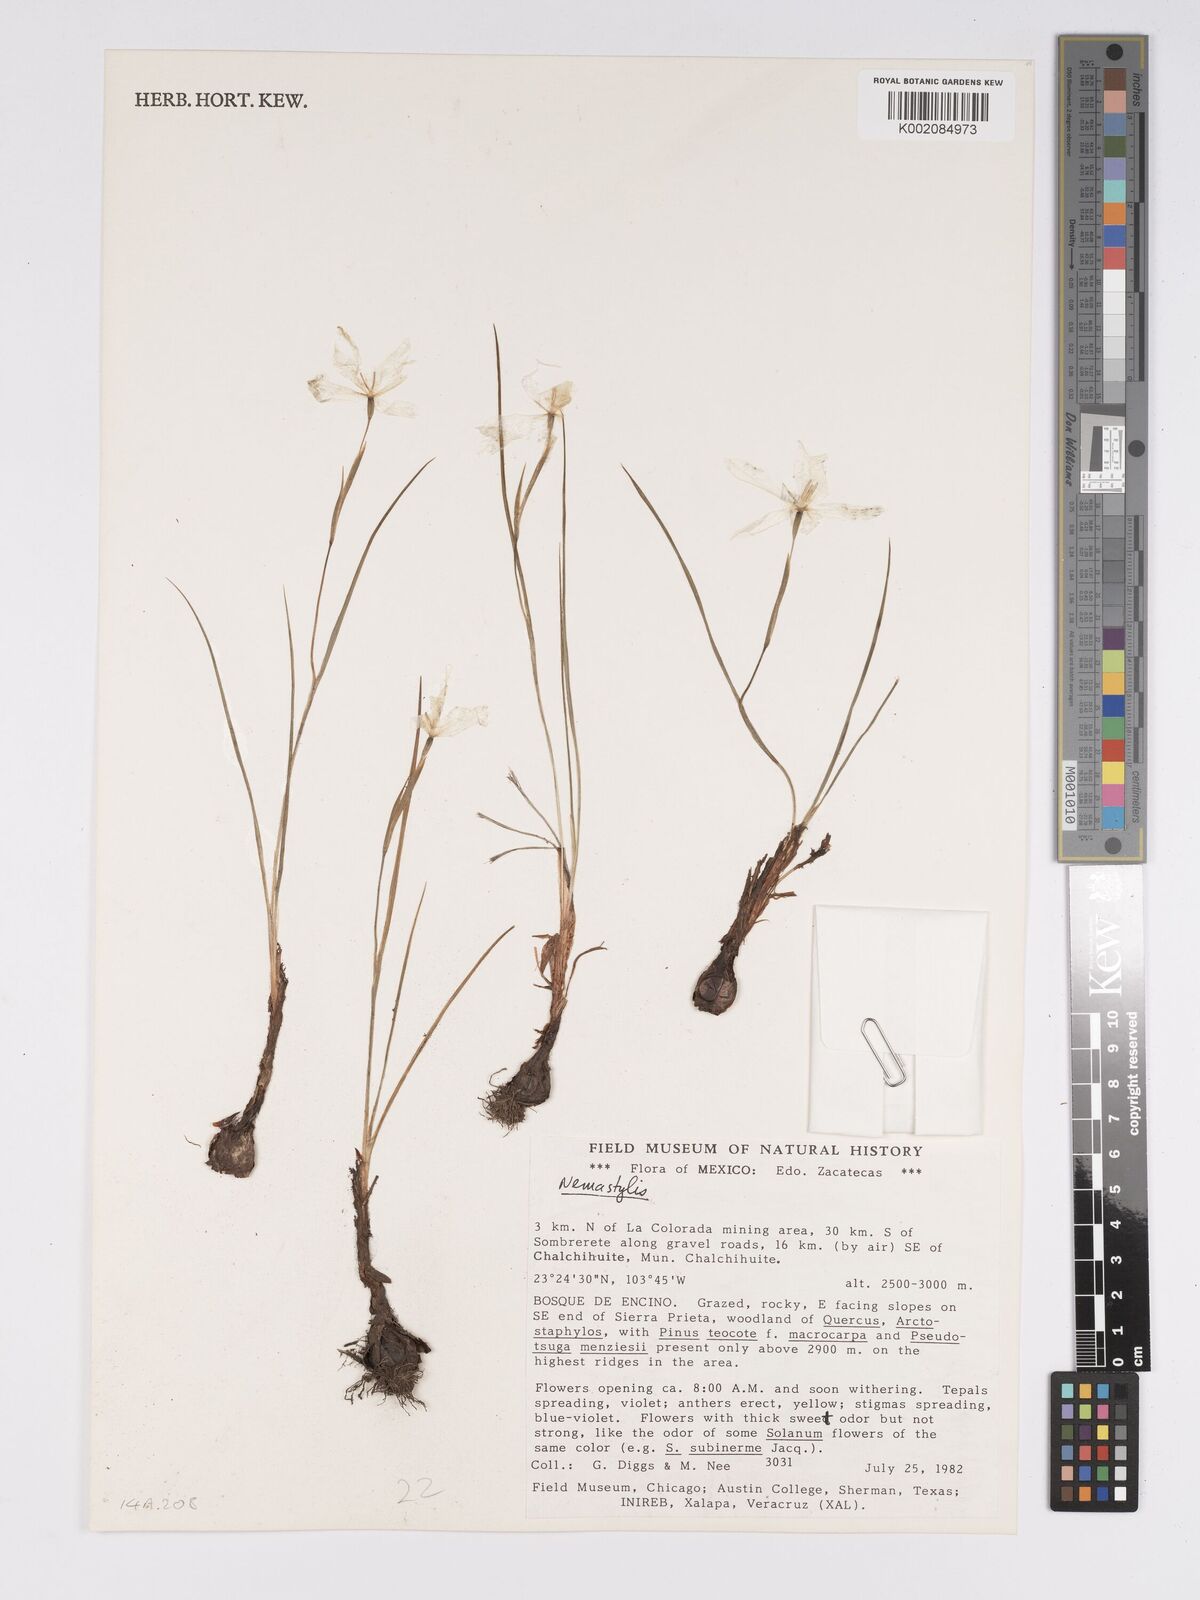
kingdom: Plantae
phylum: Tracheophyta
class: Liliopsida
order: Asparagales
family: Iridaceae
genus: Nemastylis
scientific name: Nemastylis
